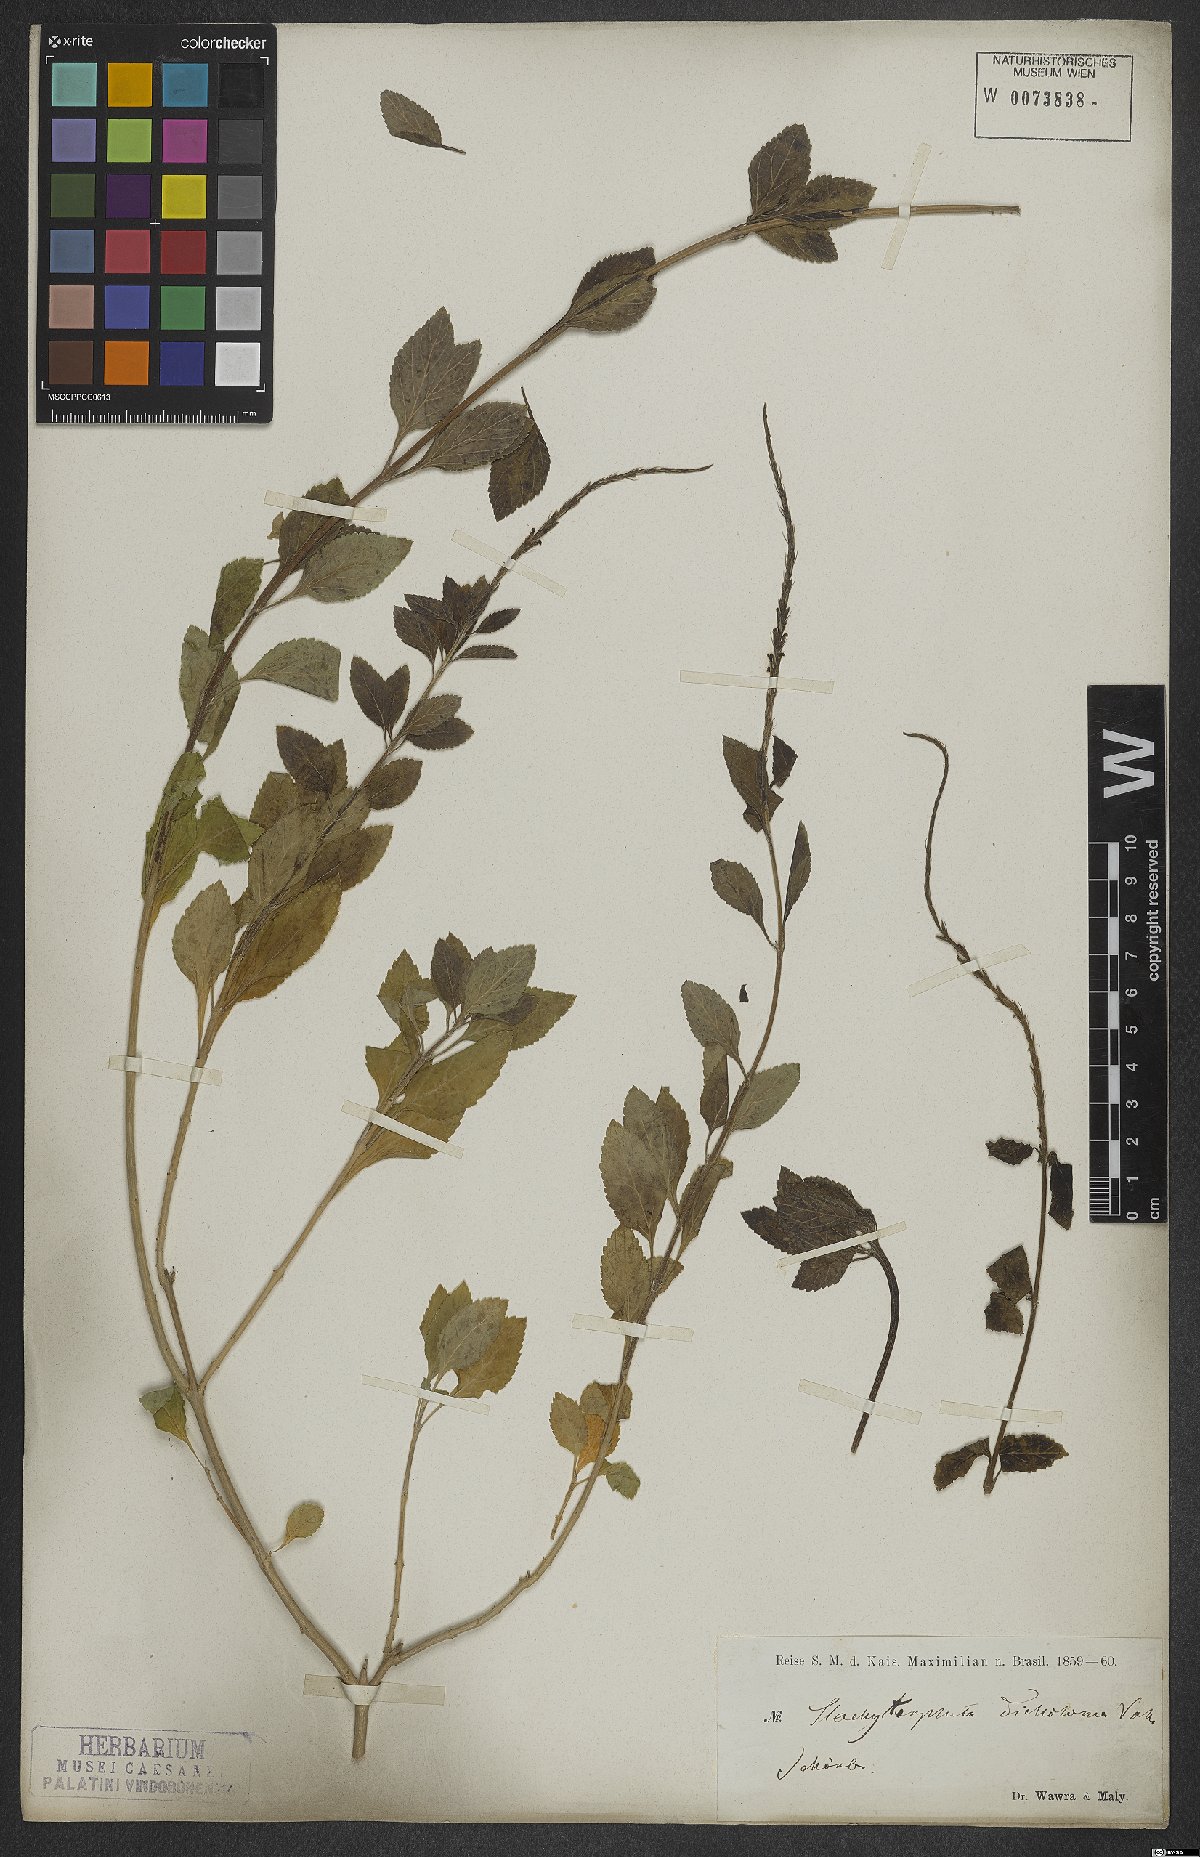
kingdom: Plantae
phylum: Tracheophyta
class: Magnoliopsida
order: Lamiales
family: Verbenaceae
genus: Stachytarpheta
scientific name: Stachytarpheta cayennensis
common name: Cayenne porterweed
